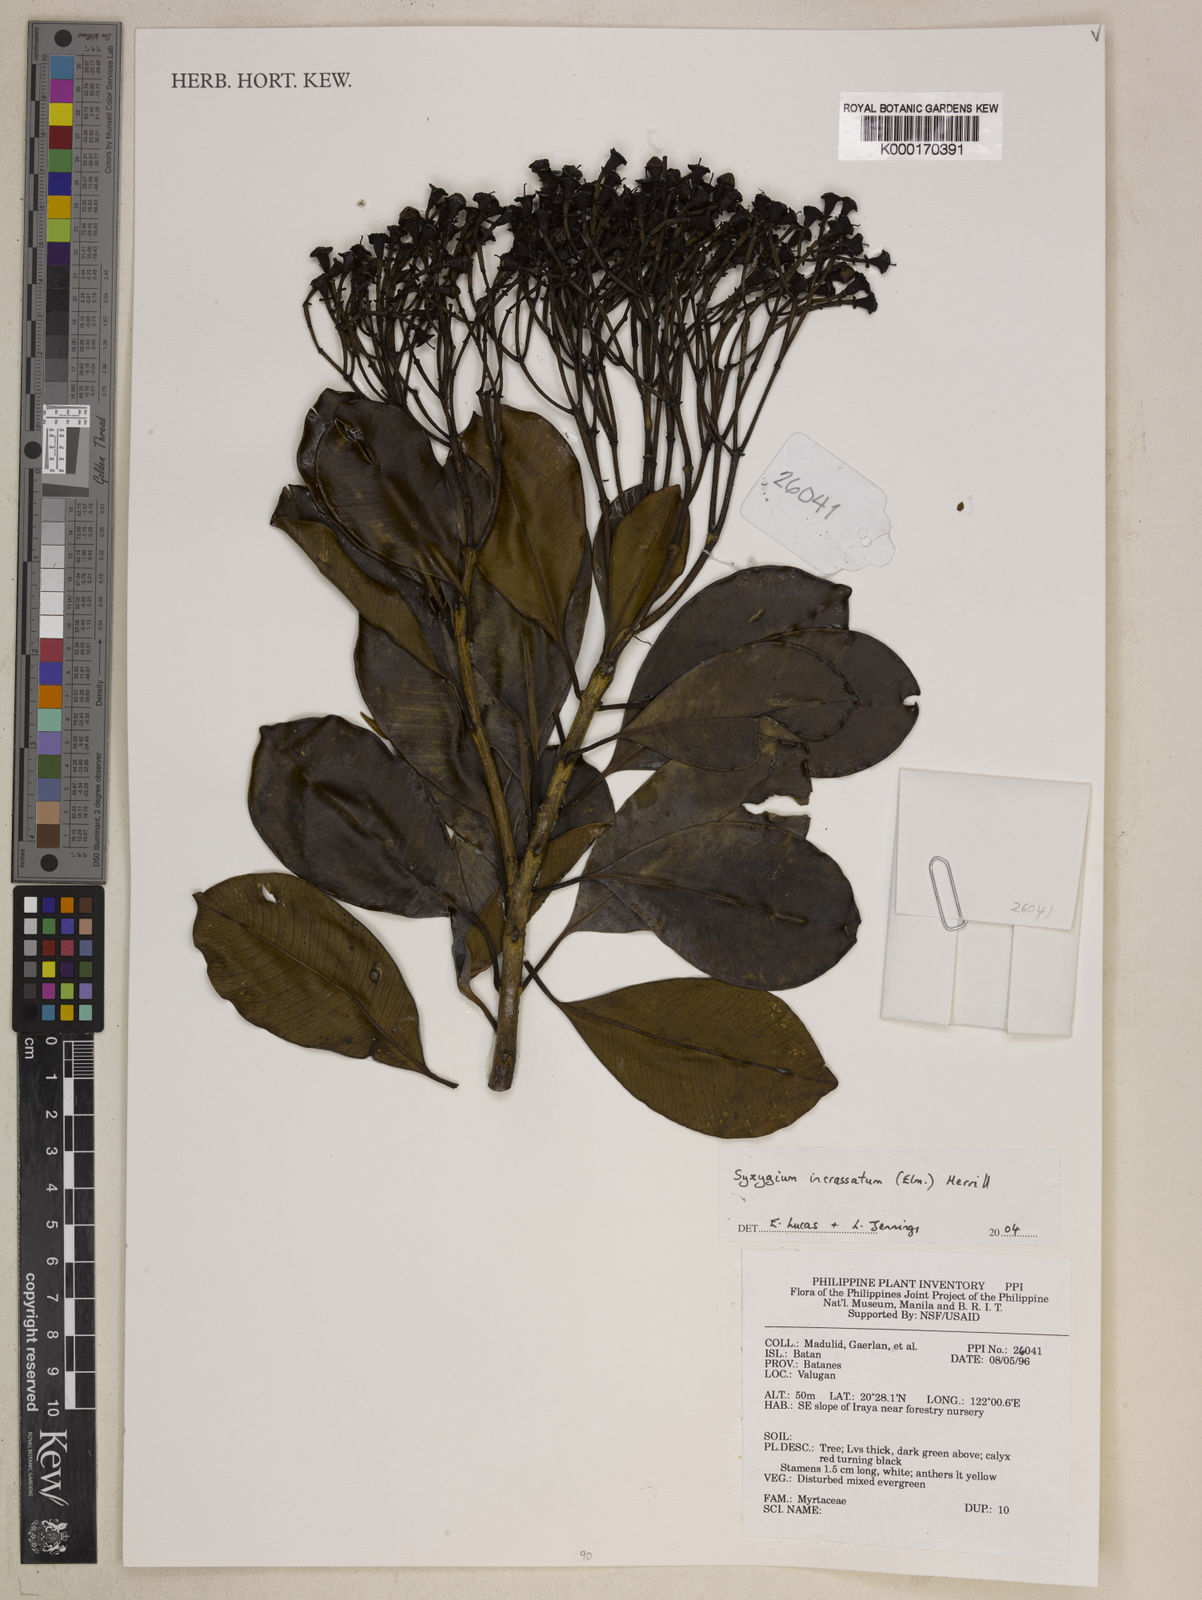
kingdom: Plantae
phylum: Tracheophyta
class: Magnoliopsida
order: Myrtales
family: Myrtaceae
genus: Syzygium
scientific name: Syzygium incrassatum
